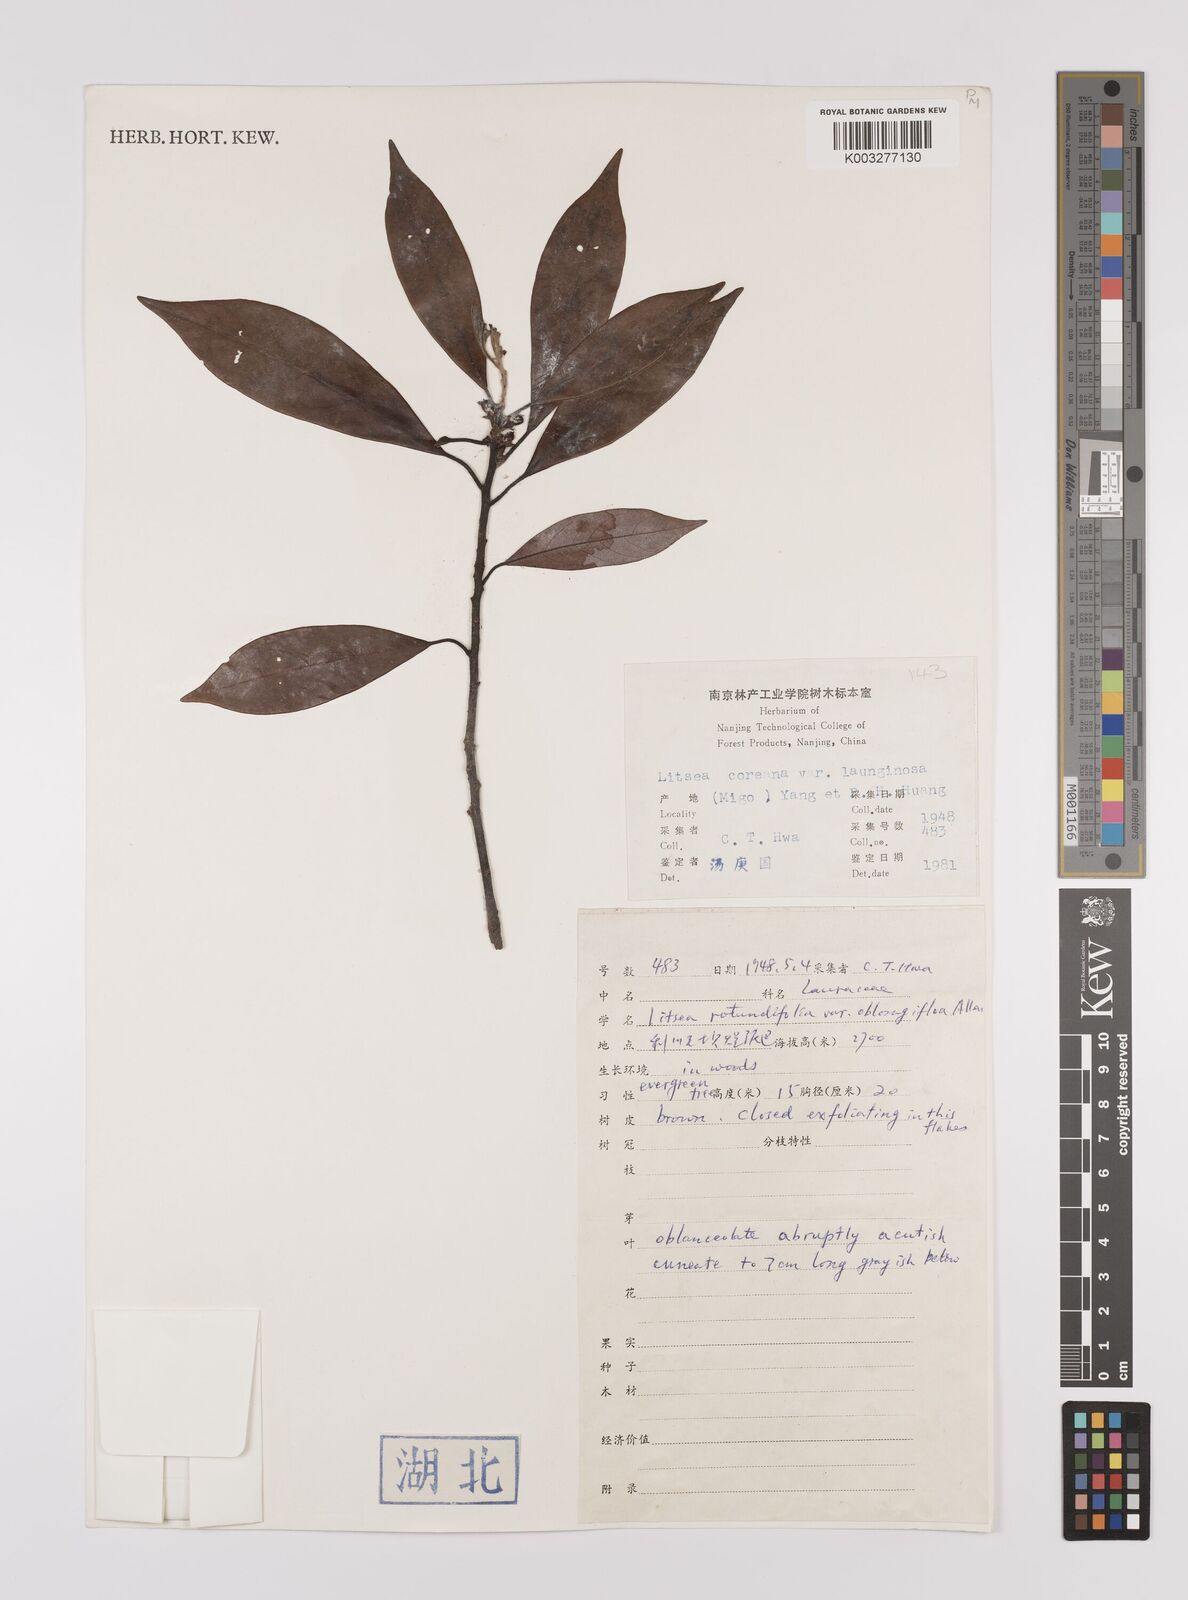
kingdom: Plantae
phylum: Tracheophyta
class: Magnoliopsida
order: Laurales
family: Lauraceae
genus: Litsea
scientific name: Litsea coreana
